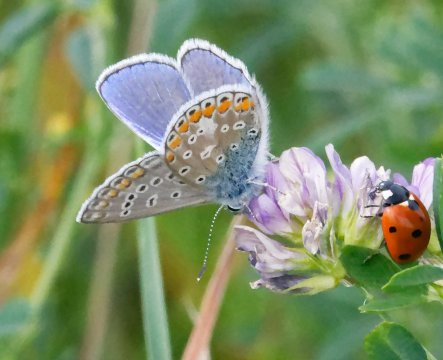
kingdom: Animalia
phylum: Arthropoda
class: Insecta
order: Lepidoptera
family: Lycaenidae
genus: Polyommatus
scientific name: Polyommatus icarus
